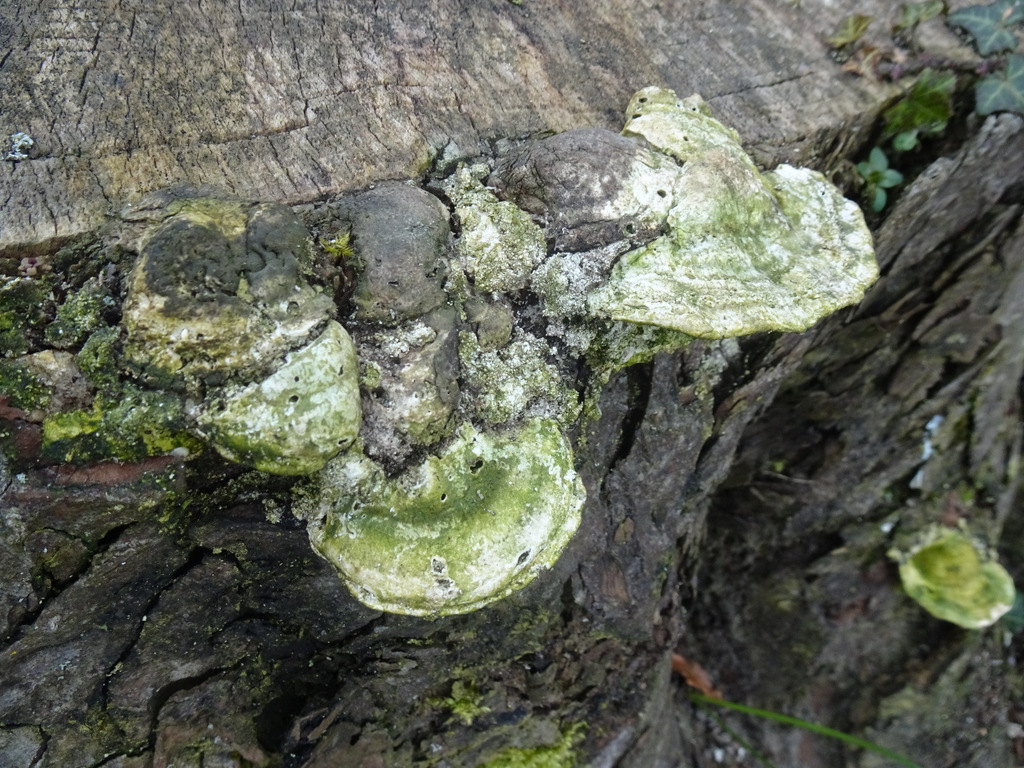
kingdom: Fungi
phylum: Basidiomycota
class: Agaricomycetes
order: Polyporales
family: Polyporaceae
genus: Trametes
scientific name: Trametes gibbosa
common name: puklet læderporesvamp
